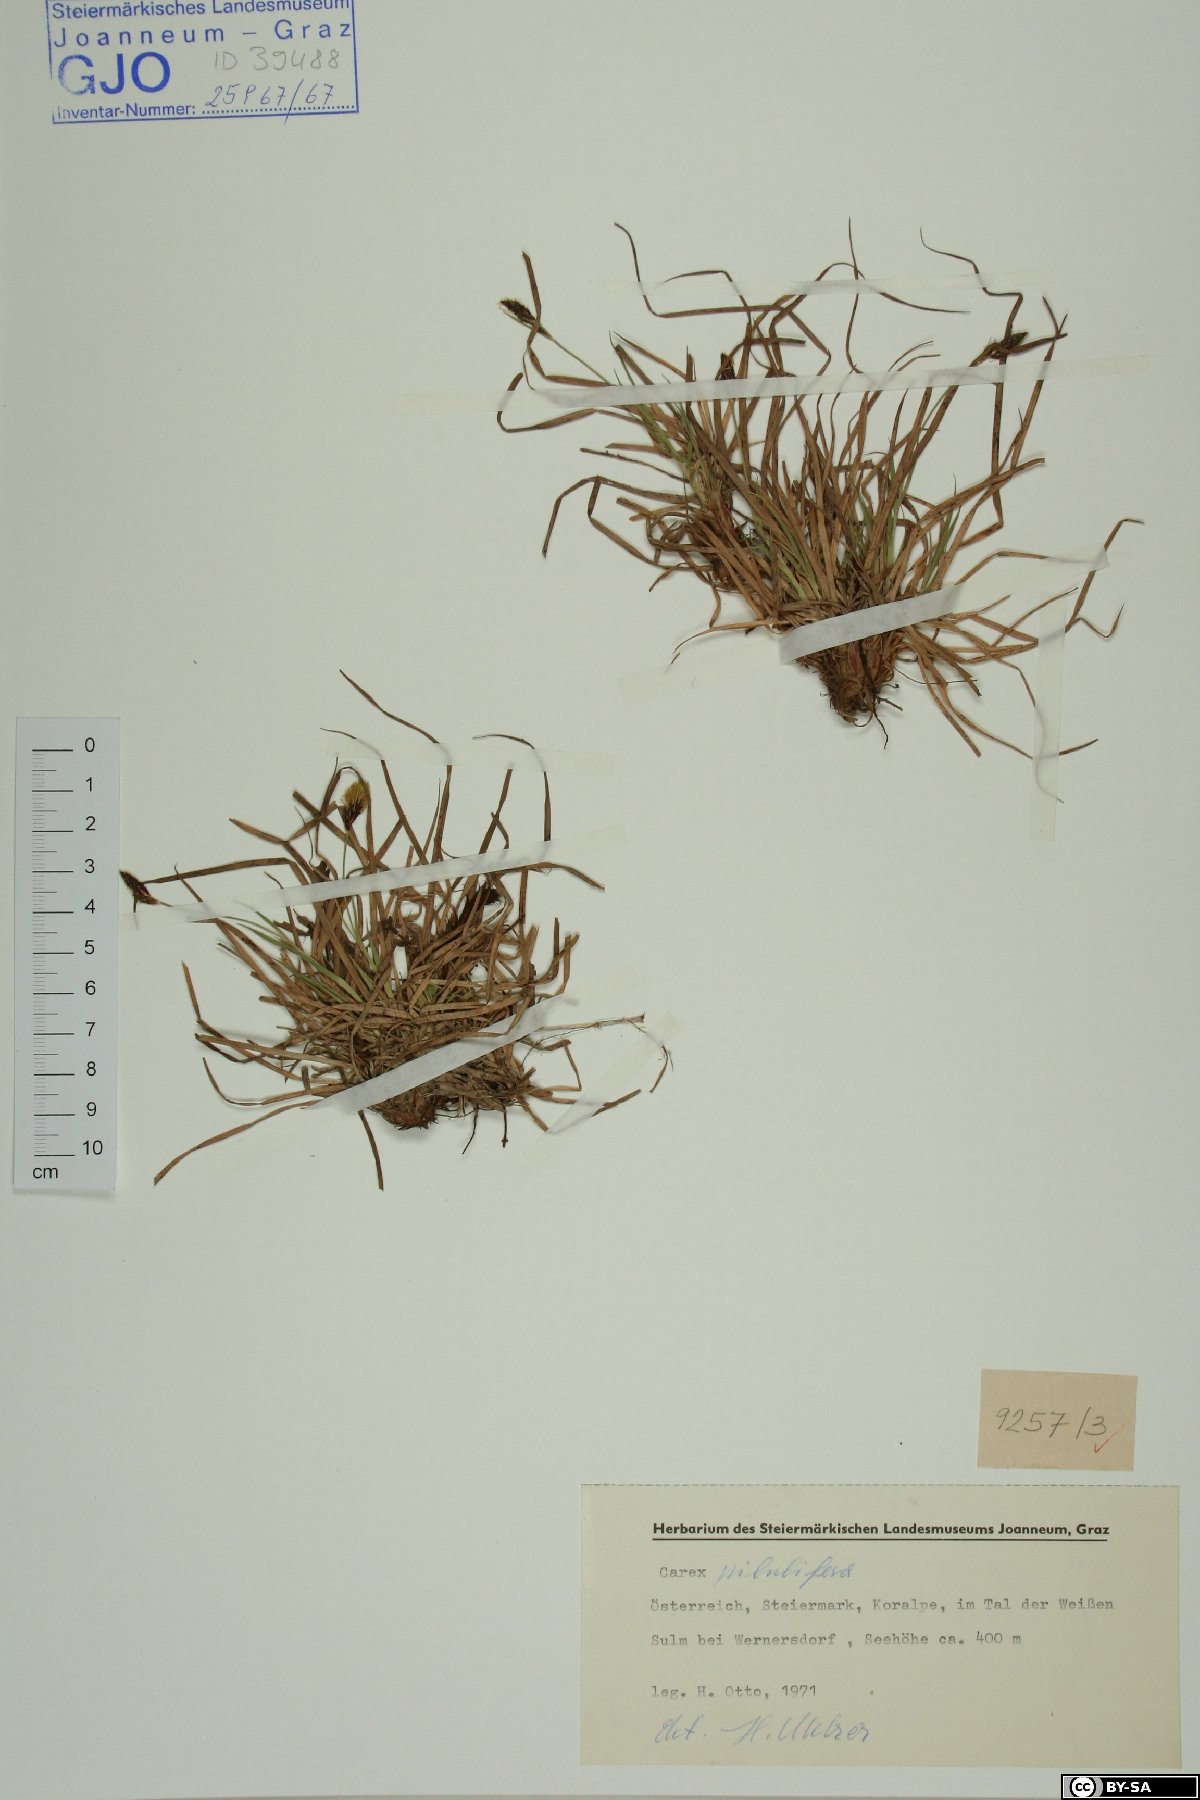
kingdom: Plantae
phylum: Tracheophyta
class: Liliopsida
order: Poales
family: Cyperaceae
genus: Carex
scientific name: Carex pilulifera
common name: Pill sedge
